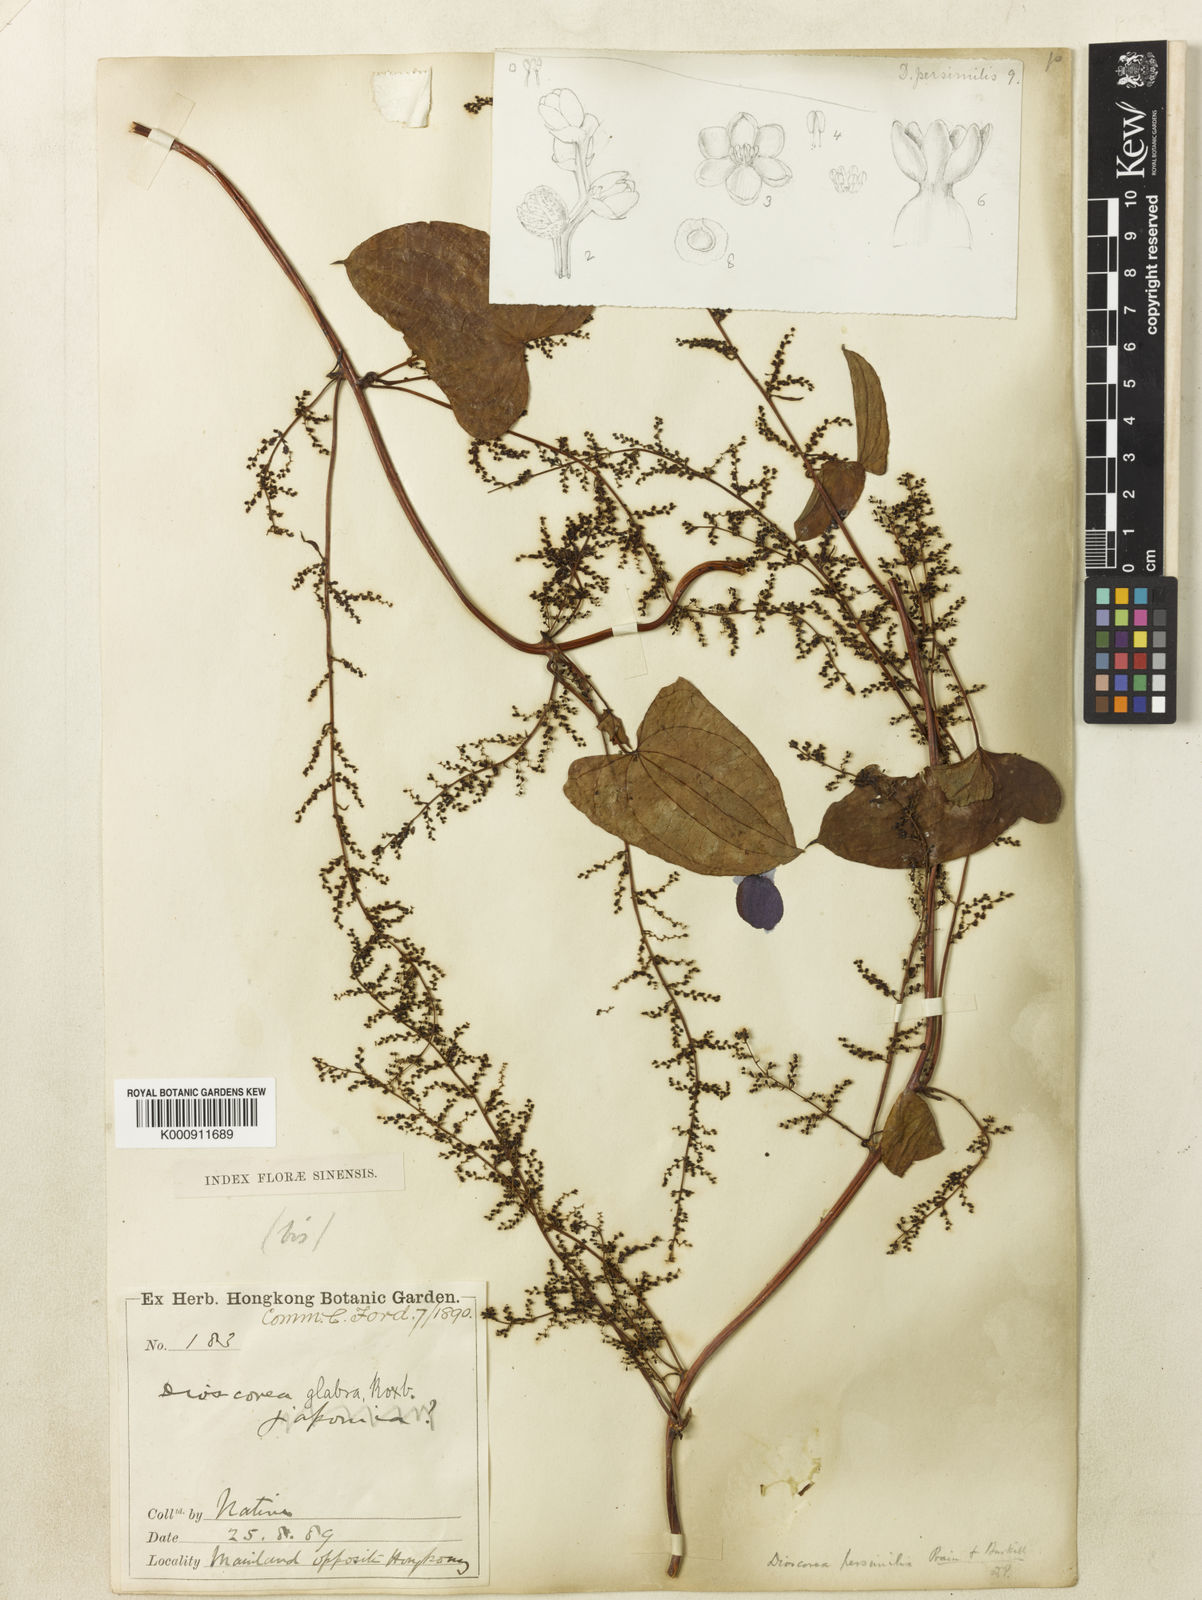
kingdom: Plantae
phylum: Tracheophyta
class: Liliopsida
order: Dioscoreales
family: Dioscoreaceae
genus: Dioscorea
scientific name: Dioscorea hamiltonii
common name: Mountain yam
